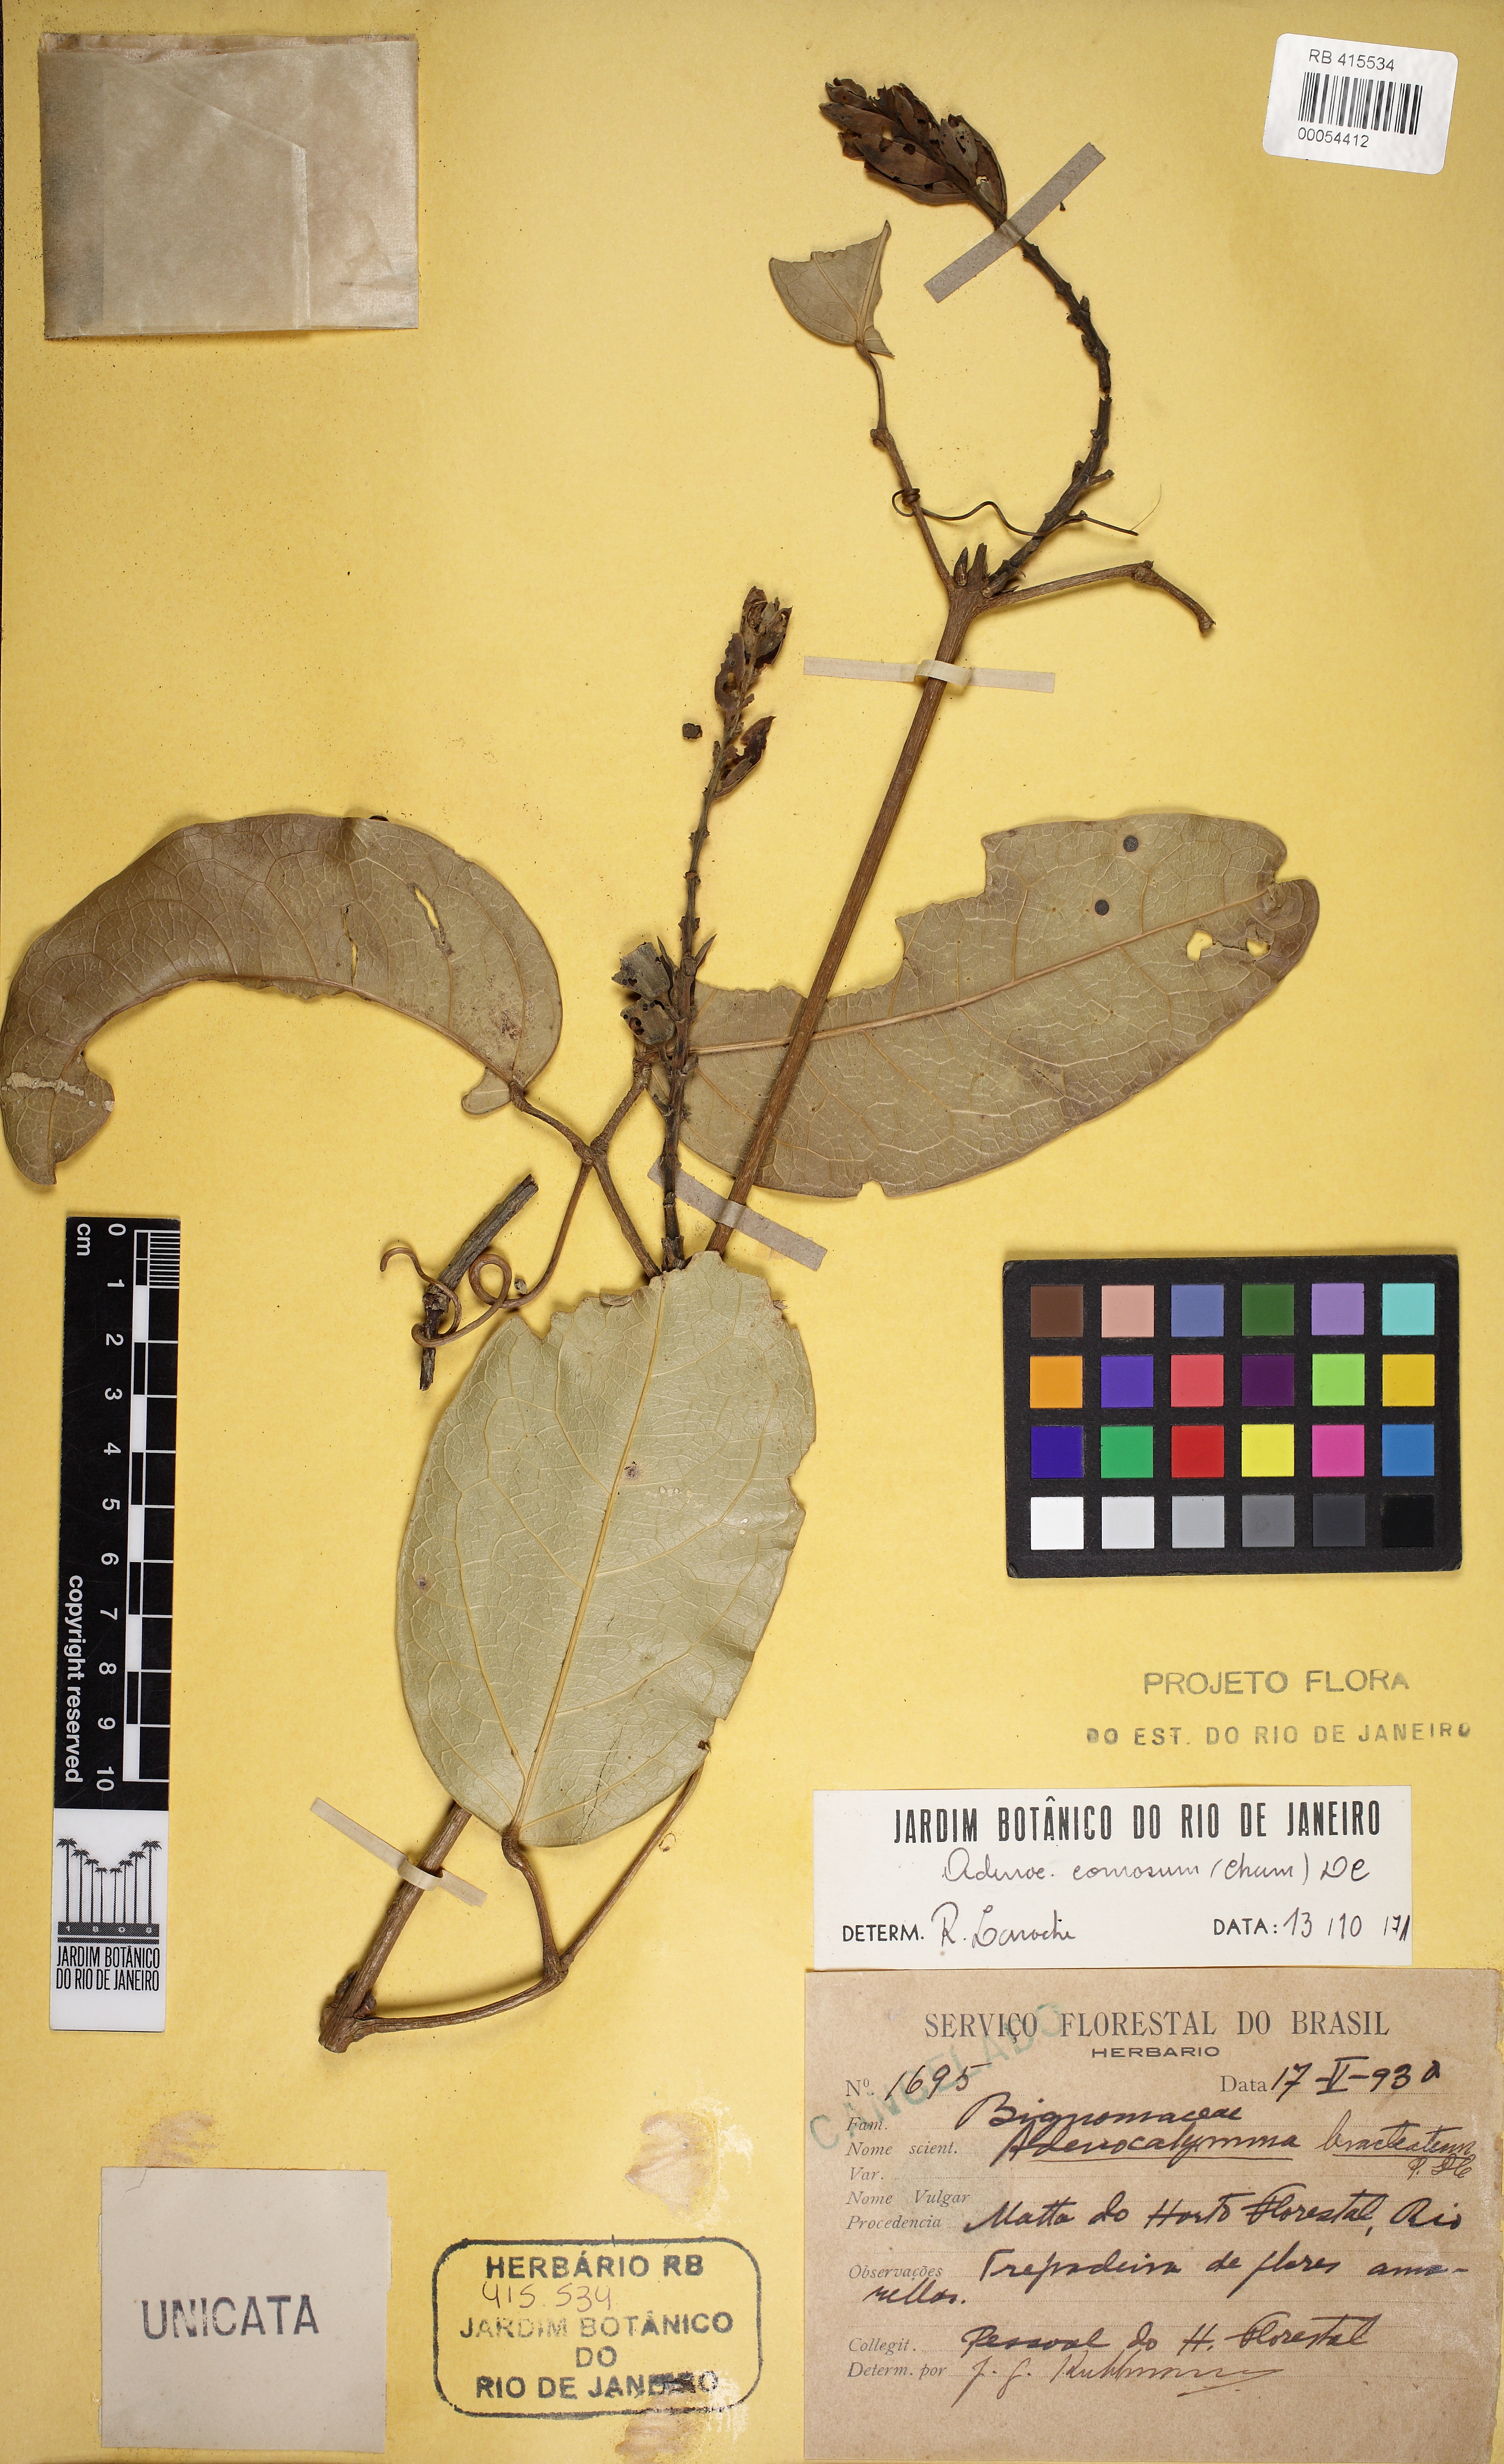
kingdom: Plantae
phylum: Tracheophyta
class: Magnoliopsida
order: Lamiales
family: Bignoniaceae
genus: Adenocalymma
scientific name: Adenocalymma acutissimum
